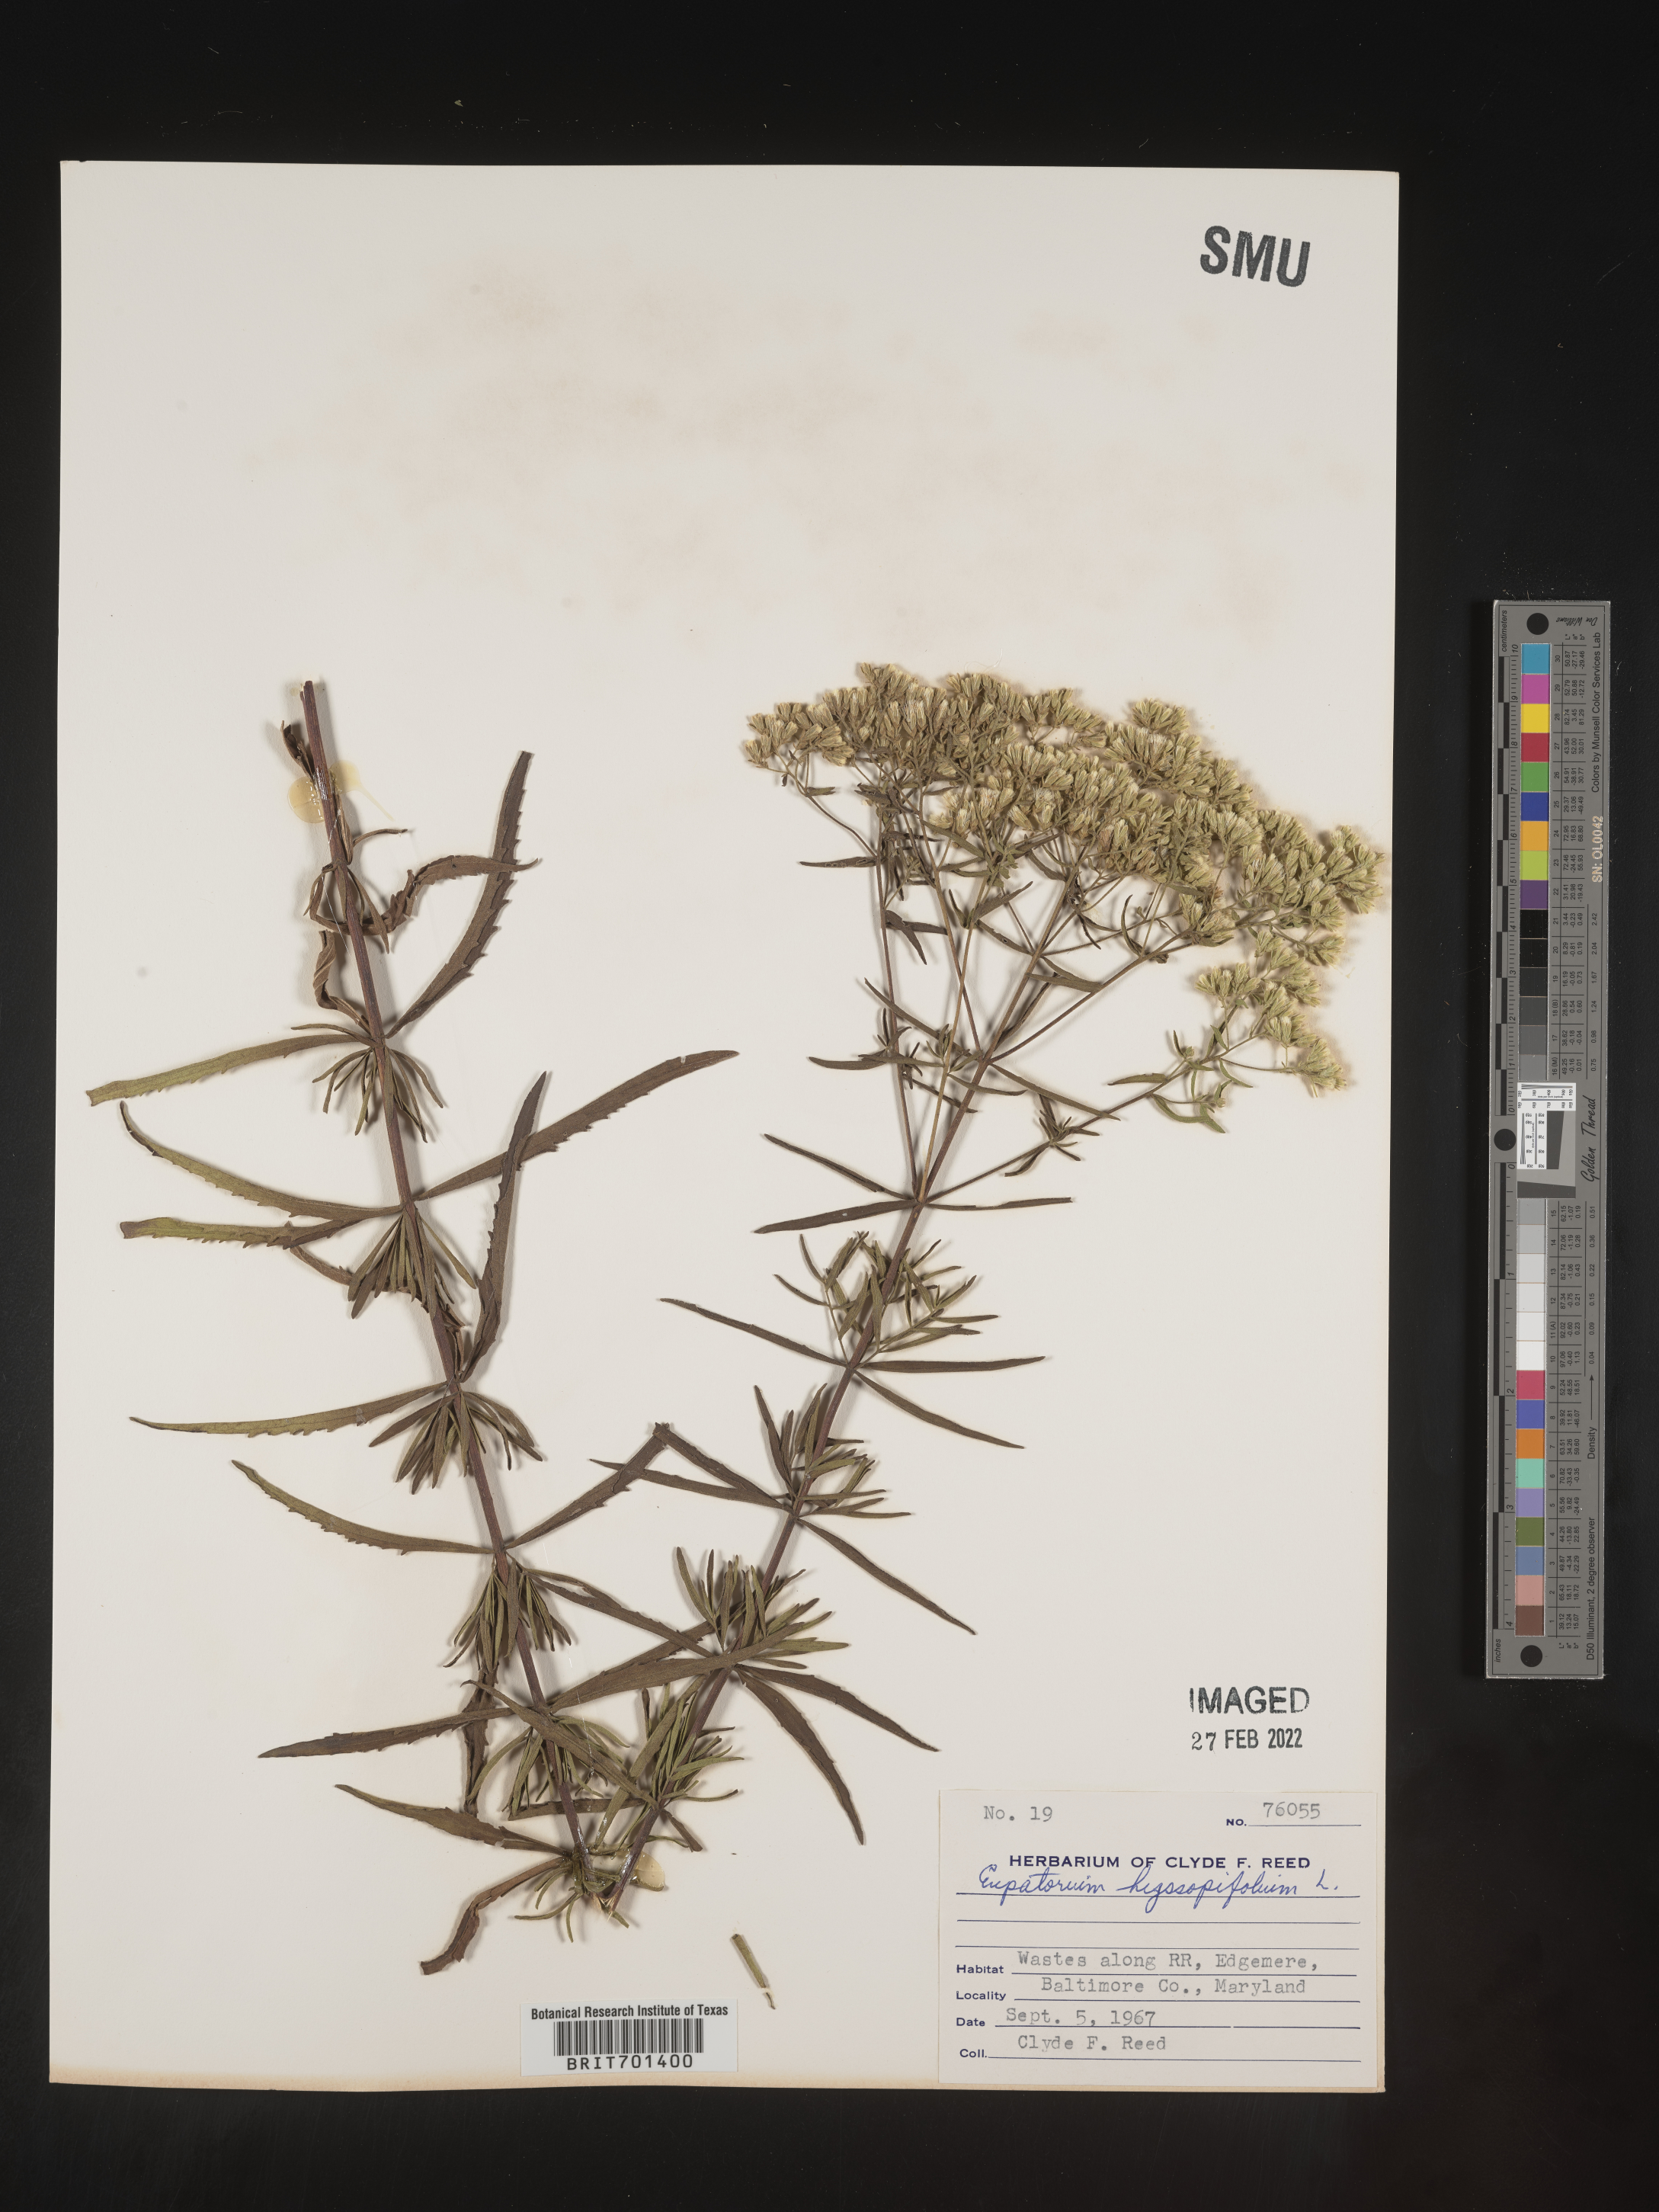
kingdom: Plantae
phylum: Tracheophyta
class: Magnoliopsida
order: Asterales
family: Asteraceae
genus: Eupatorium
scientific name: Eupatorium hyssopifolium
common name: Hyssop-leaf thoroughwort
